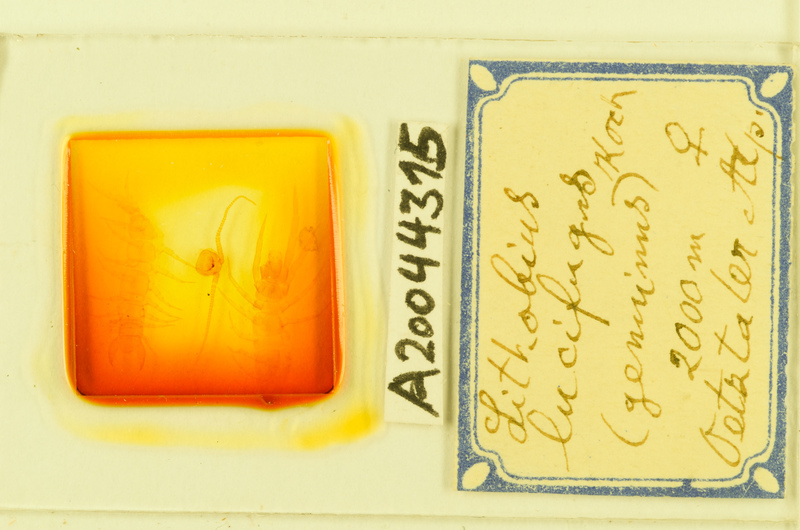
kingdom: Animalia
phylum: Arthropoda
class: Chilopoda
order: Lithobiomorpha
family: Lithobiidae
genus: Lithobius
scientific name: Lithobius lucifugus
